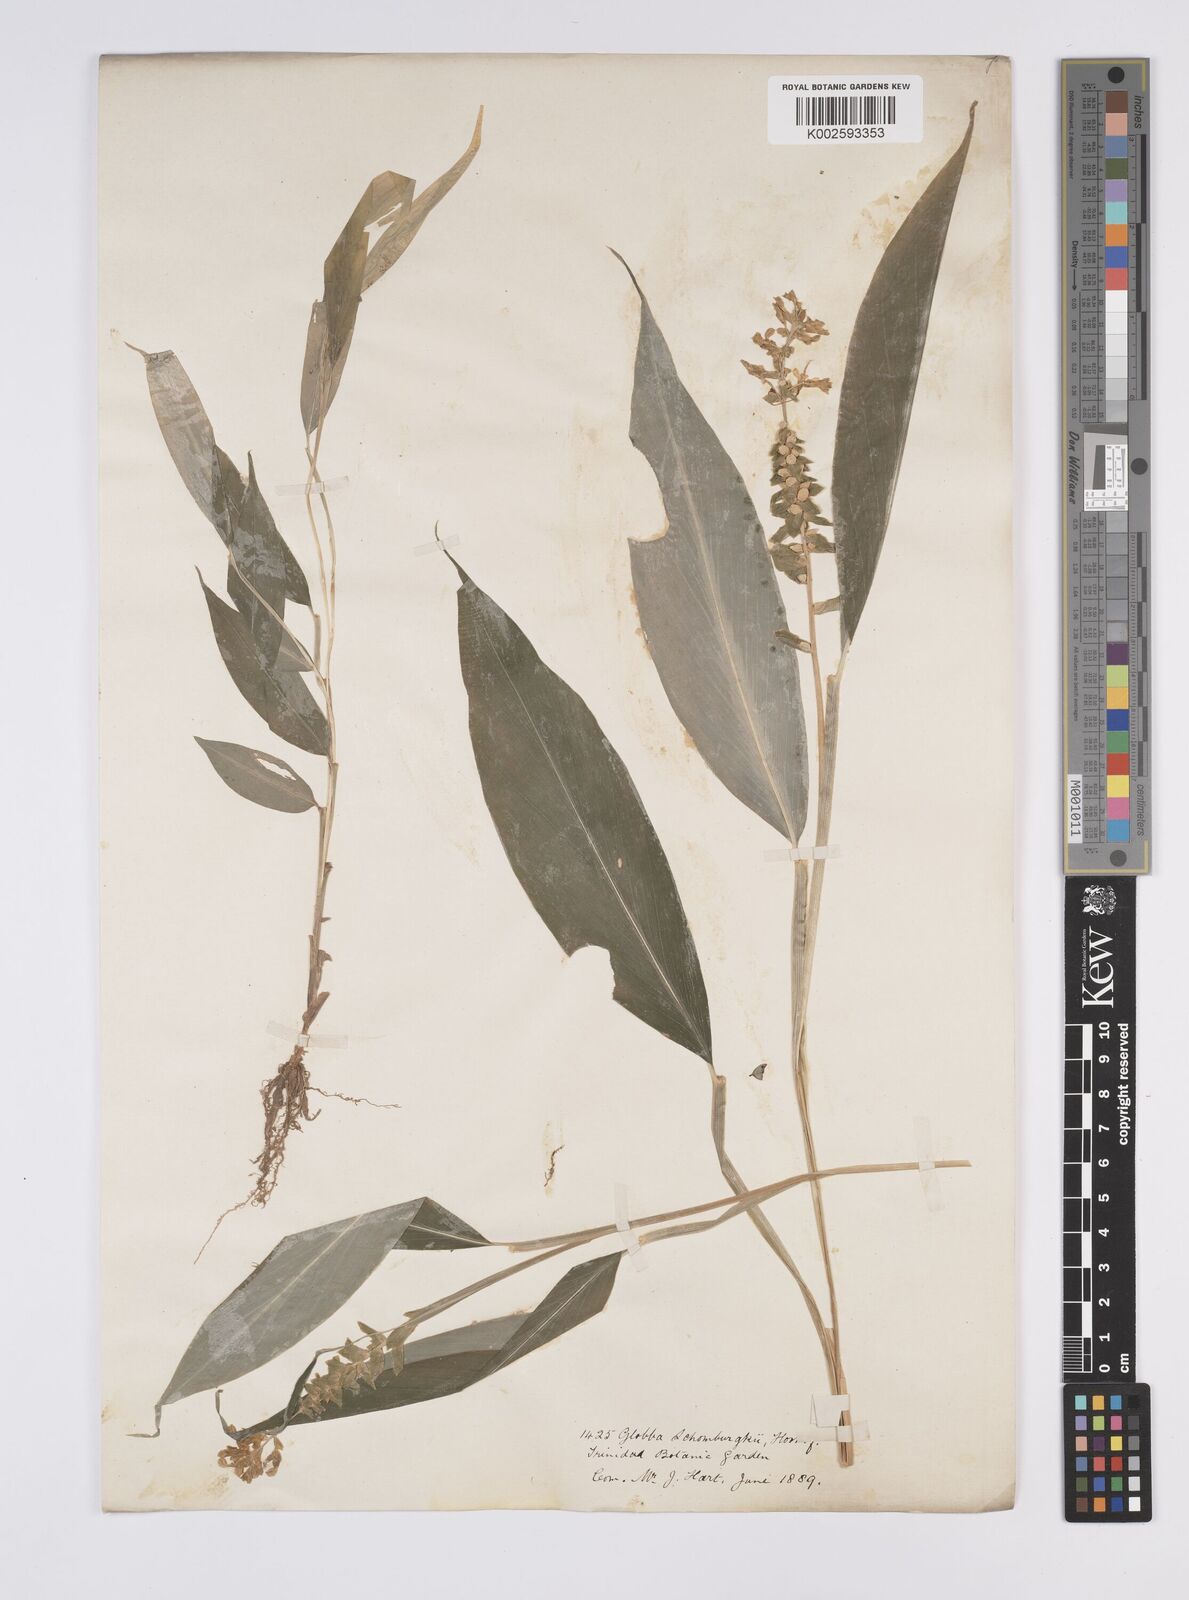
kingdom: Plantae
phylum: Tracheophyta
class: Liliopsida
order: Zingiberales
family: Zingiberaceae
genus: Globba
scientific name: Globba schomburgkii
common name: Dancing girl ginger
